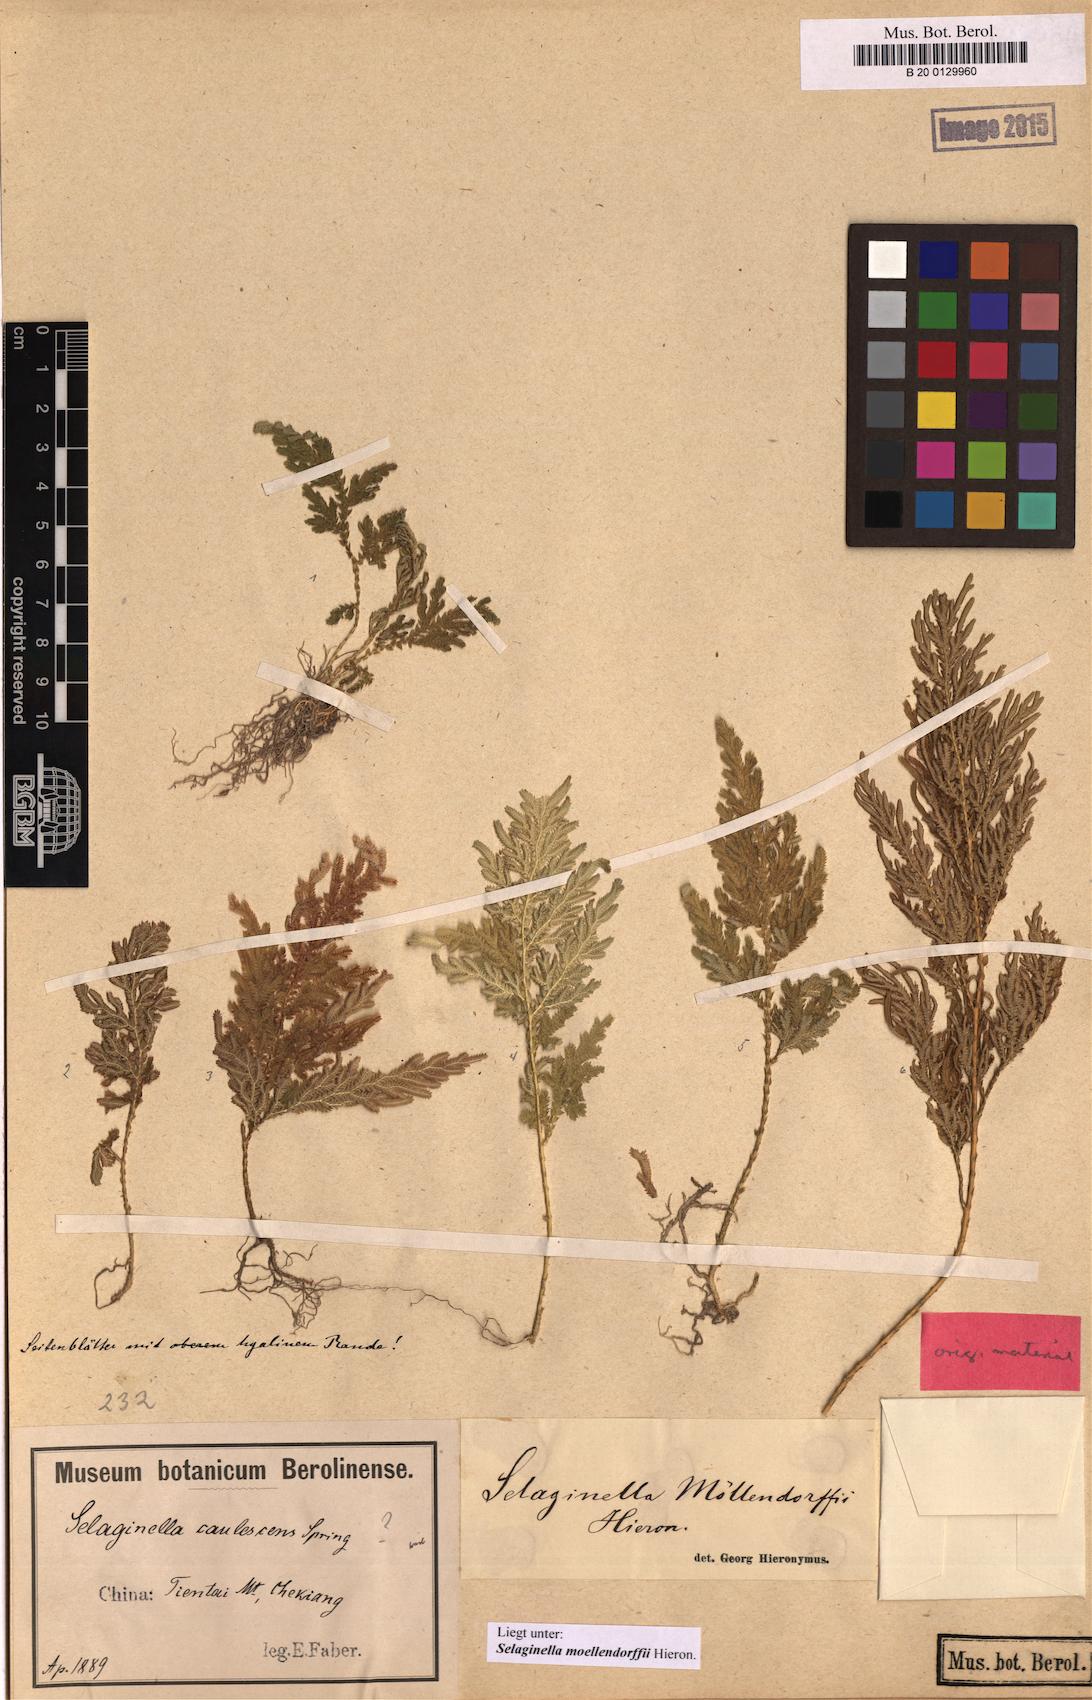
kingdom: Plantae
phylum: Tracheophyta
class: Lycopodiopsida
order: Selaginellales
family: Selaginellaceae
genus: Selaginella
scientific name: Selaginella moellendorffii
